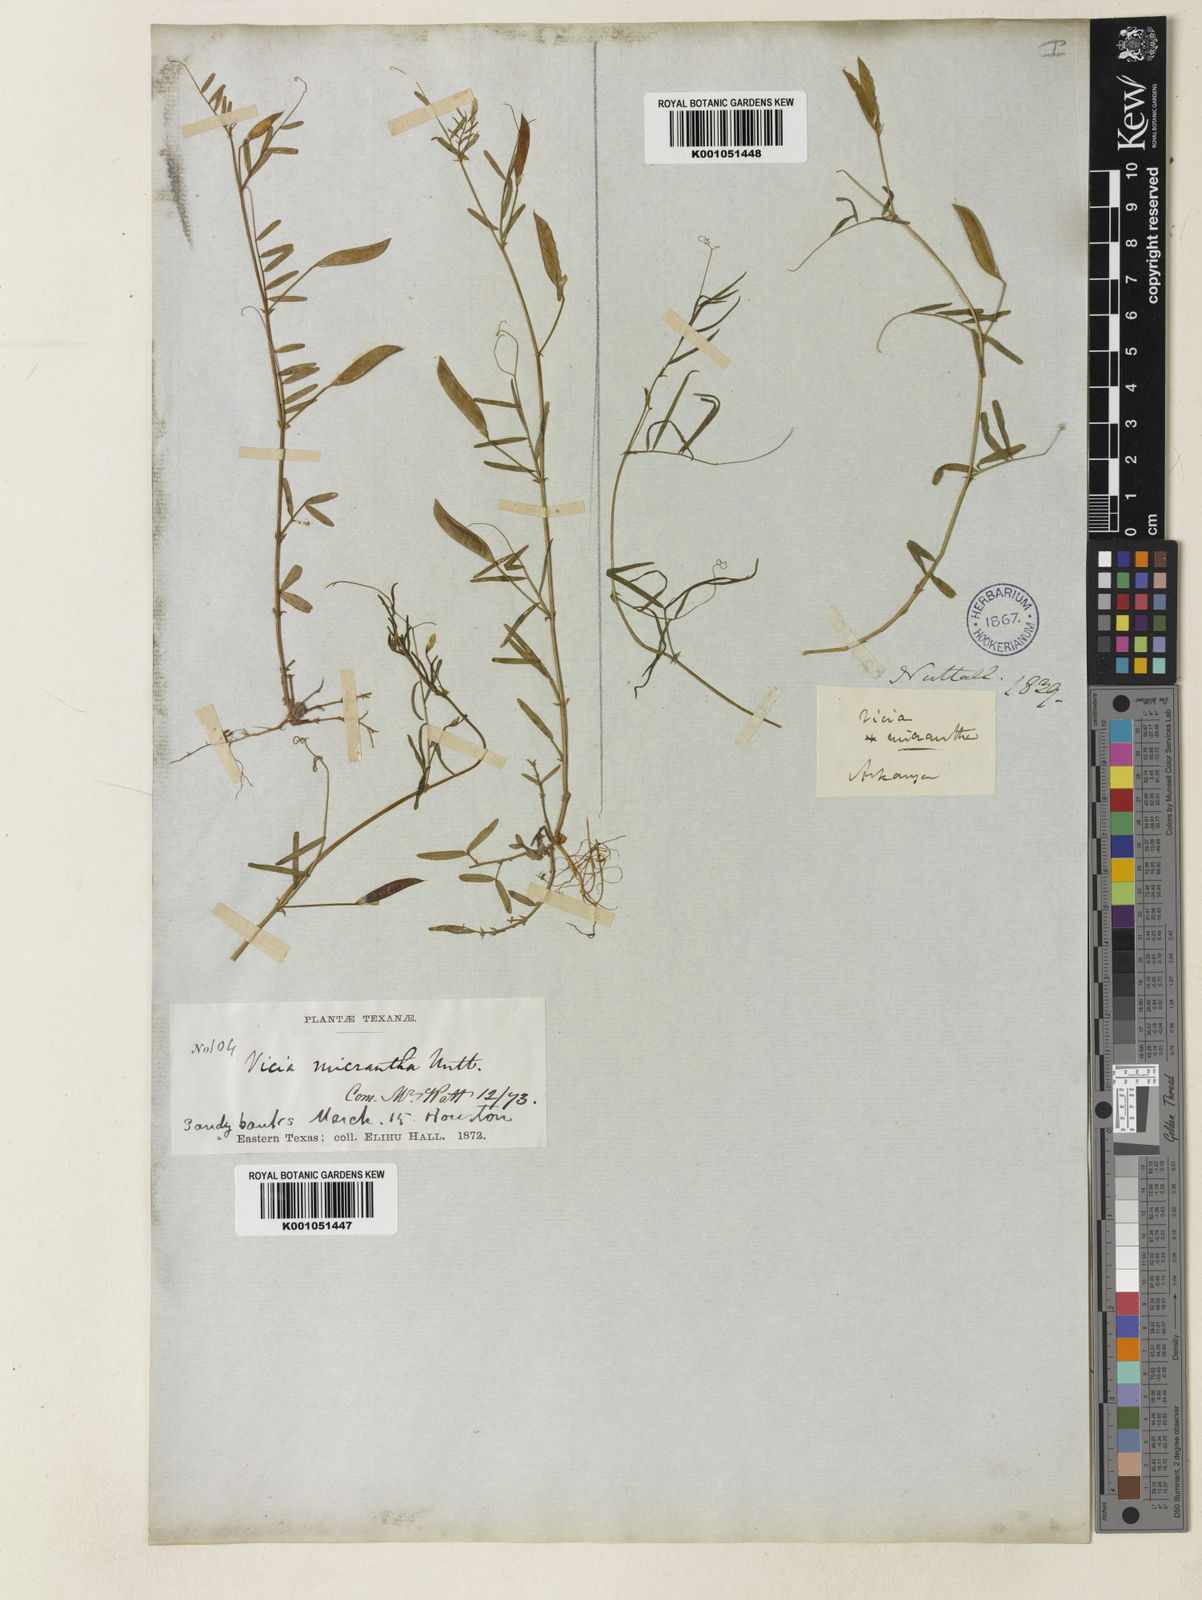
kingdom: Plantae
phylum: Tracheophyta
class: Magnoliopsida
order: Fabales
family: Fabaceae
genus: Vicia
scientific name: Vicia
